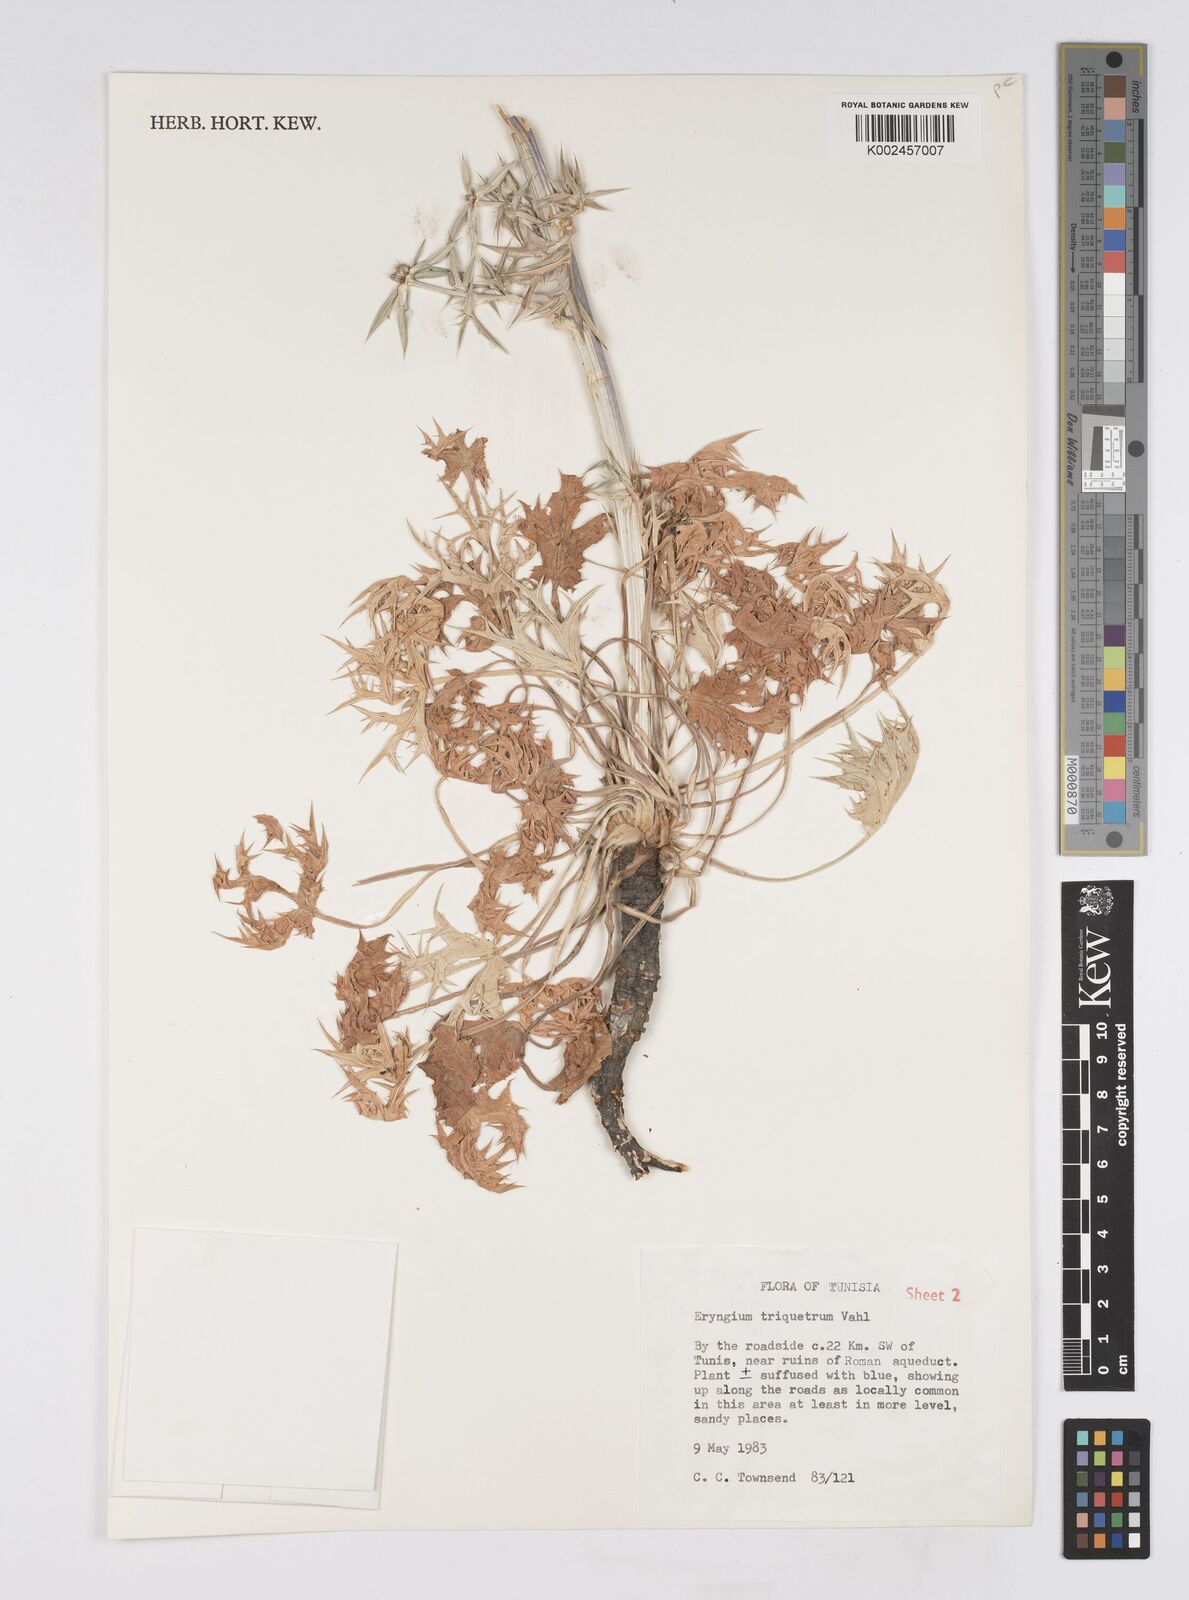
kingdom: Plantae
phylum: Tracheophyta
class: Magnoliopsida
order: Apiales
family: Apiaceae
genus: Eryngium
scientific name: Eryngium triquetrum
